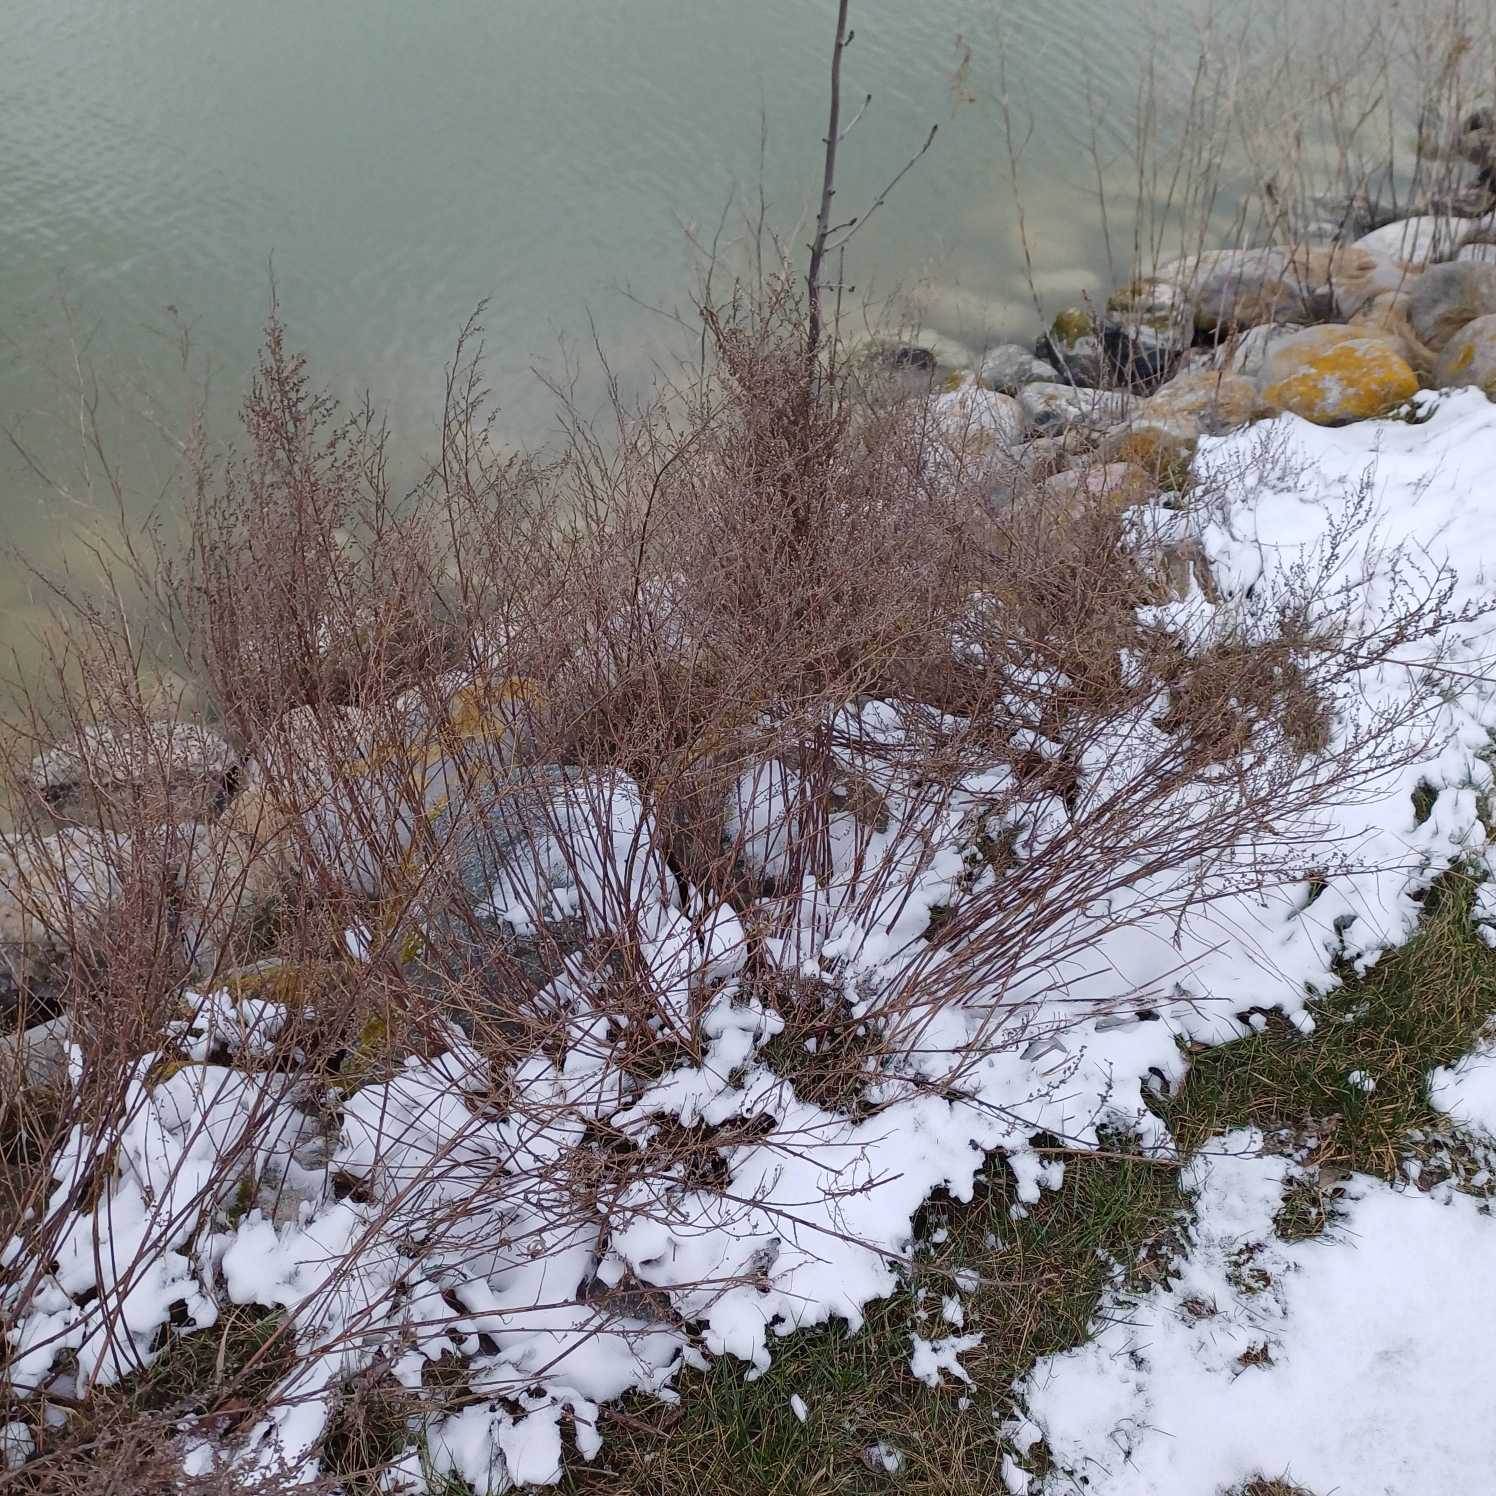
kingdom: Plantae
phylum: Tracheophyta
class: Magnoliopsida
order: Asterales
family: Asteraceae
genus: Artemisia
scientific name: Artemisia campestris
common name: Mark-bynke
